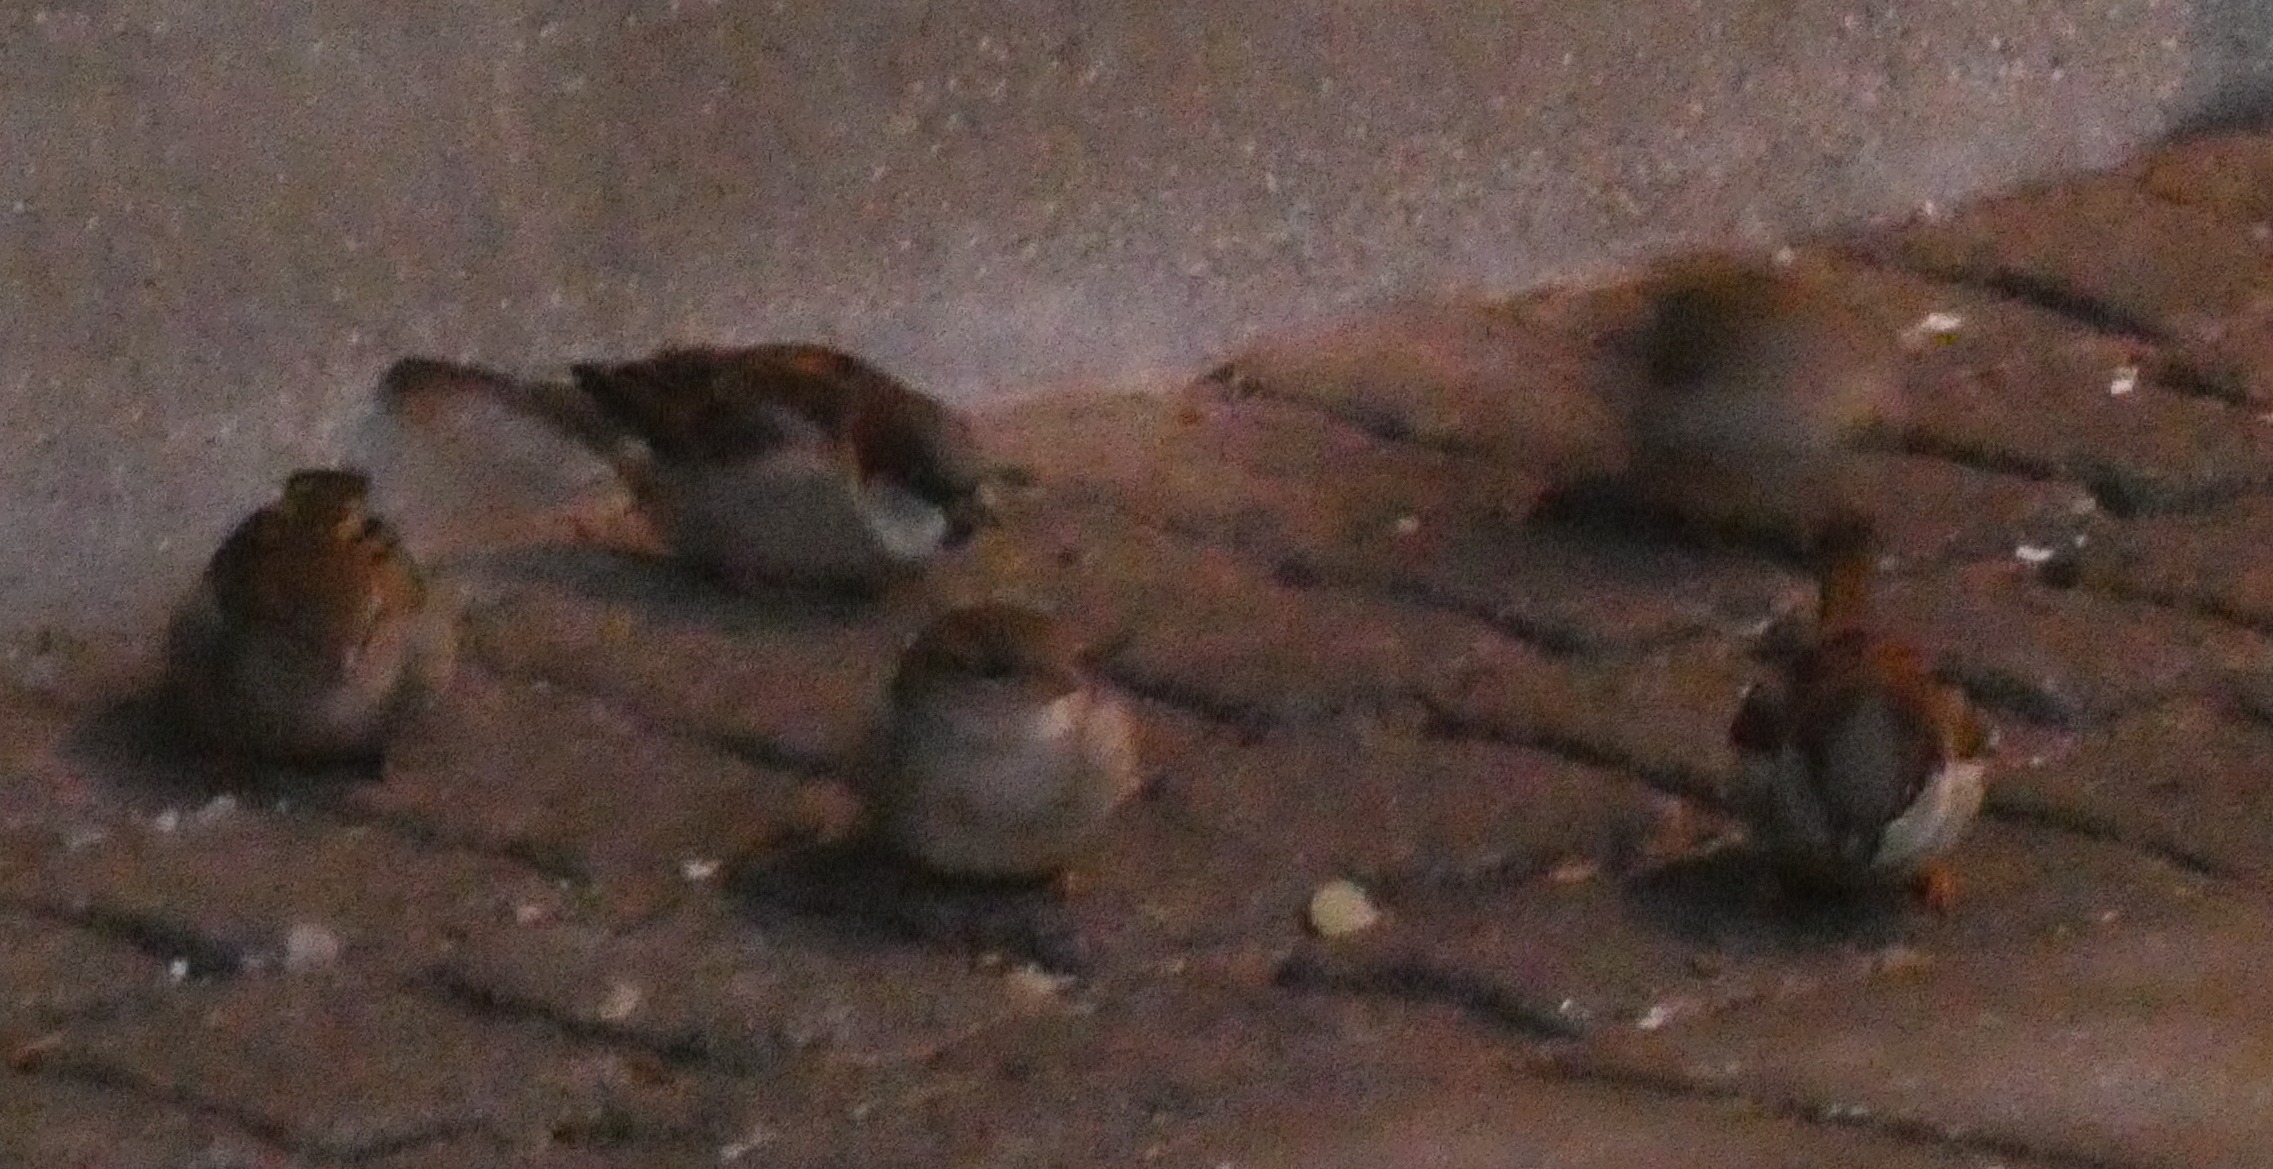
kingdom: Animalia
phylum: Chordata
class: Aves
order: Passeriformes
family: Passeridae
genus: Passer
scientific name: Passer domesticus
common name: Gråspurv
